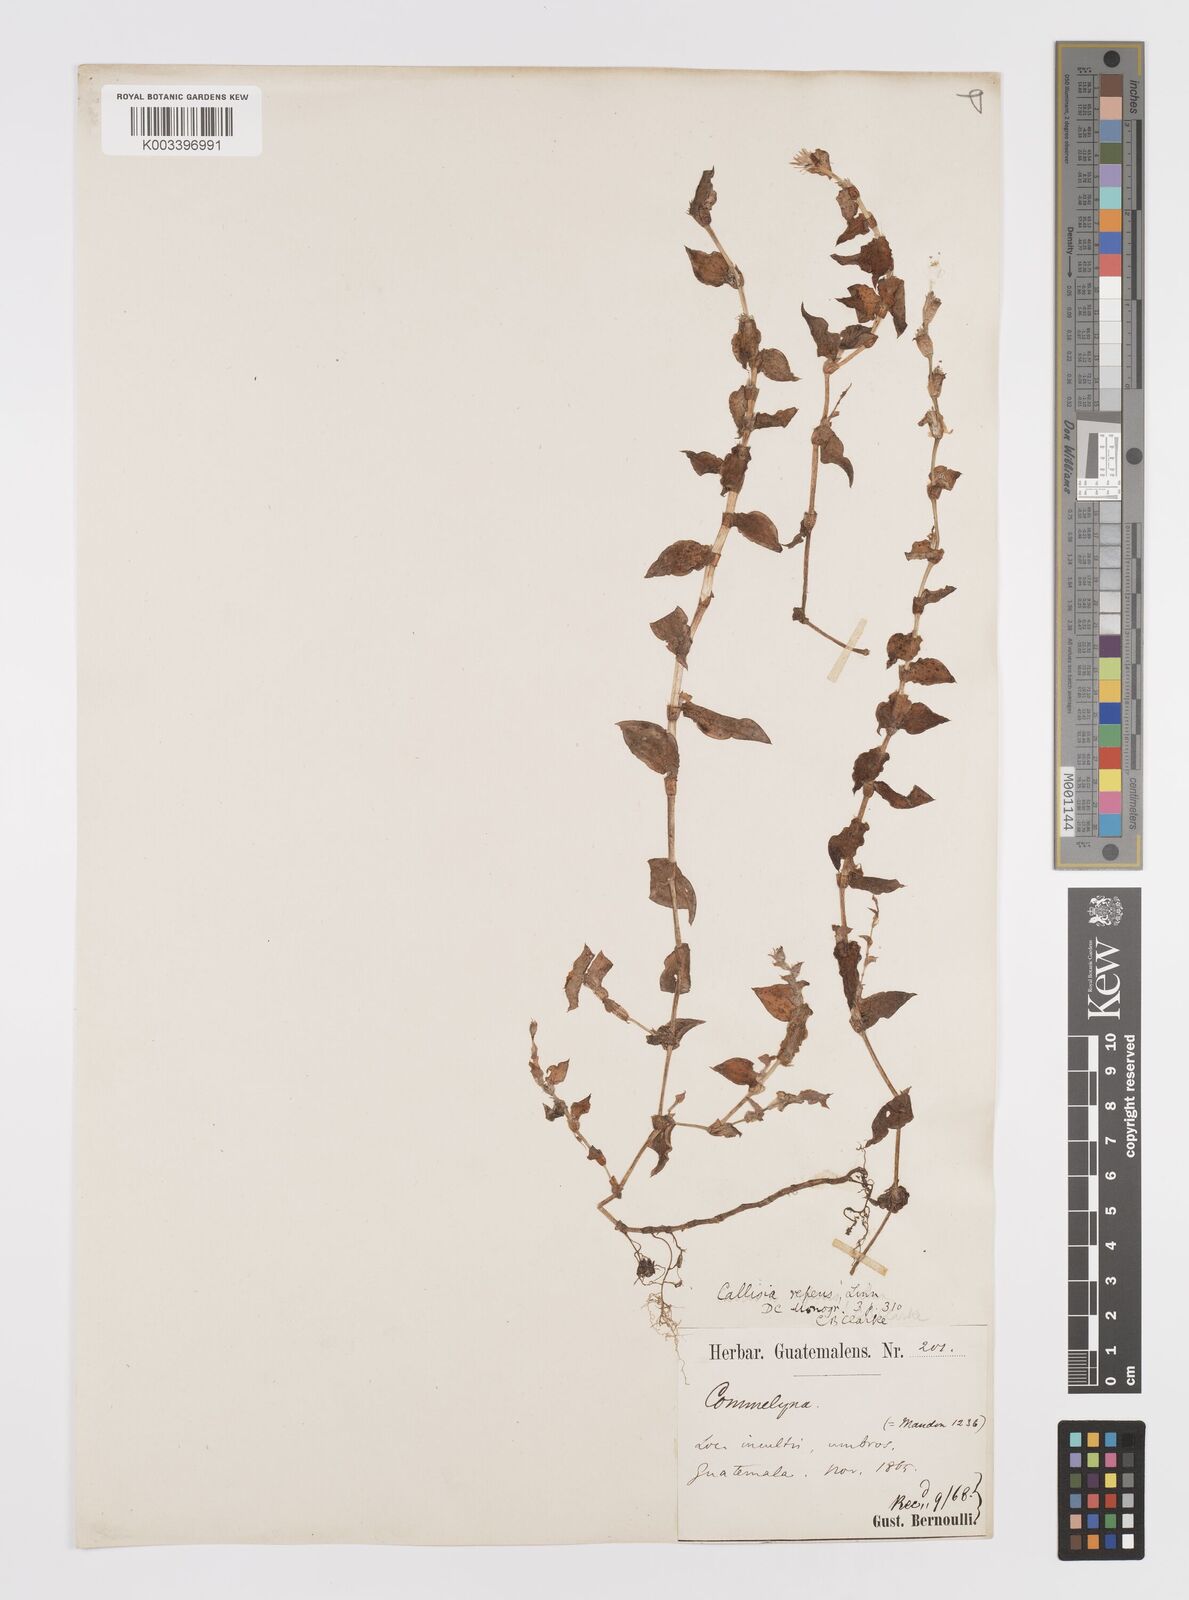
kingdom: Plantae
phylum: Tracheophyta
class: Liliopsida
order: Commelinales
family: Commelinaceae
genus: Callisia
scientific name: Callisia repens
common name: Creeping inchplant
